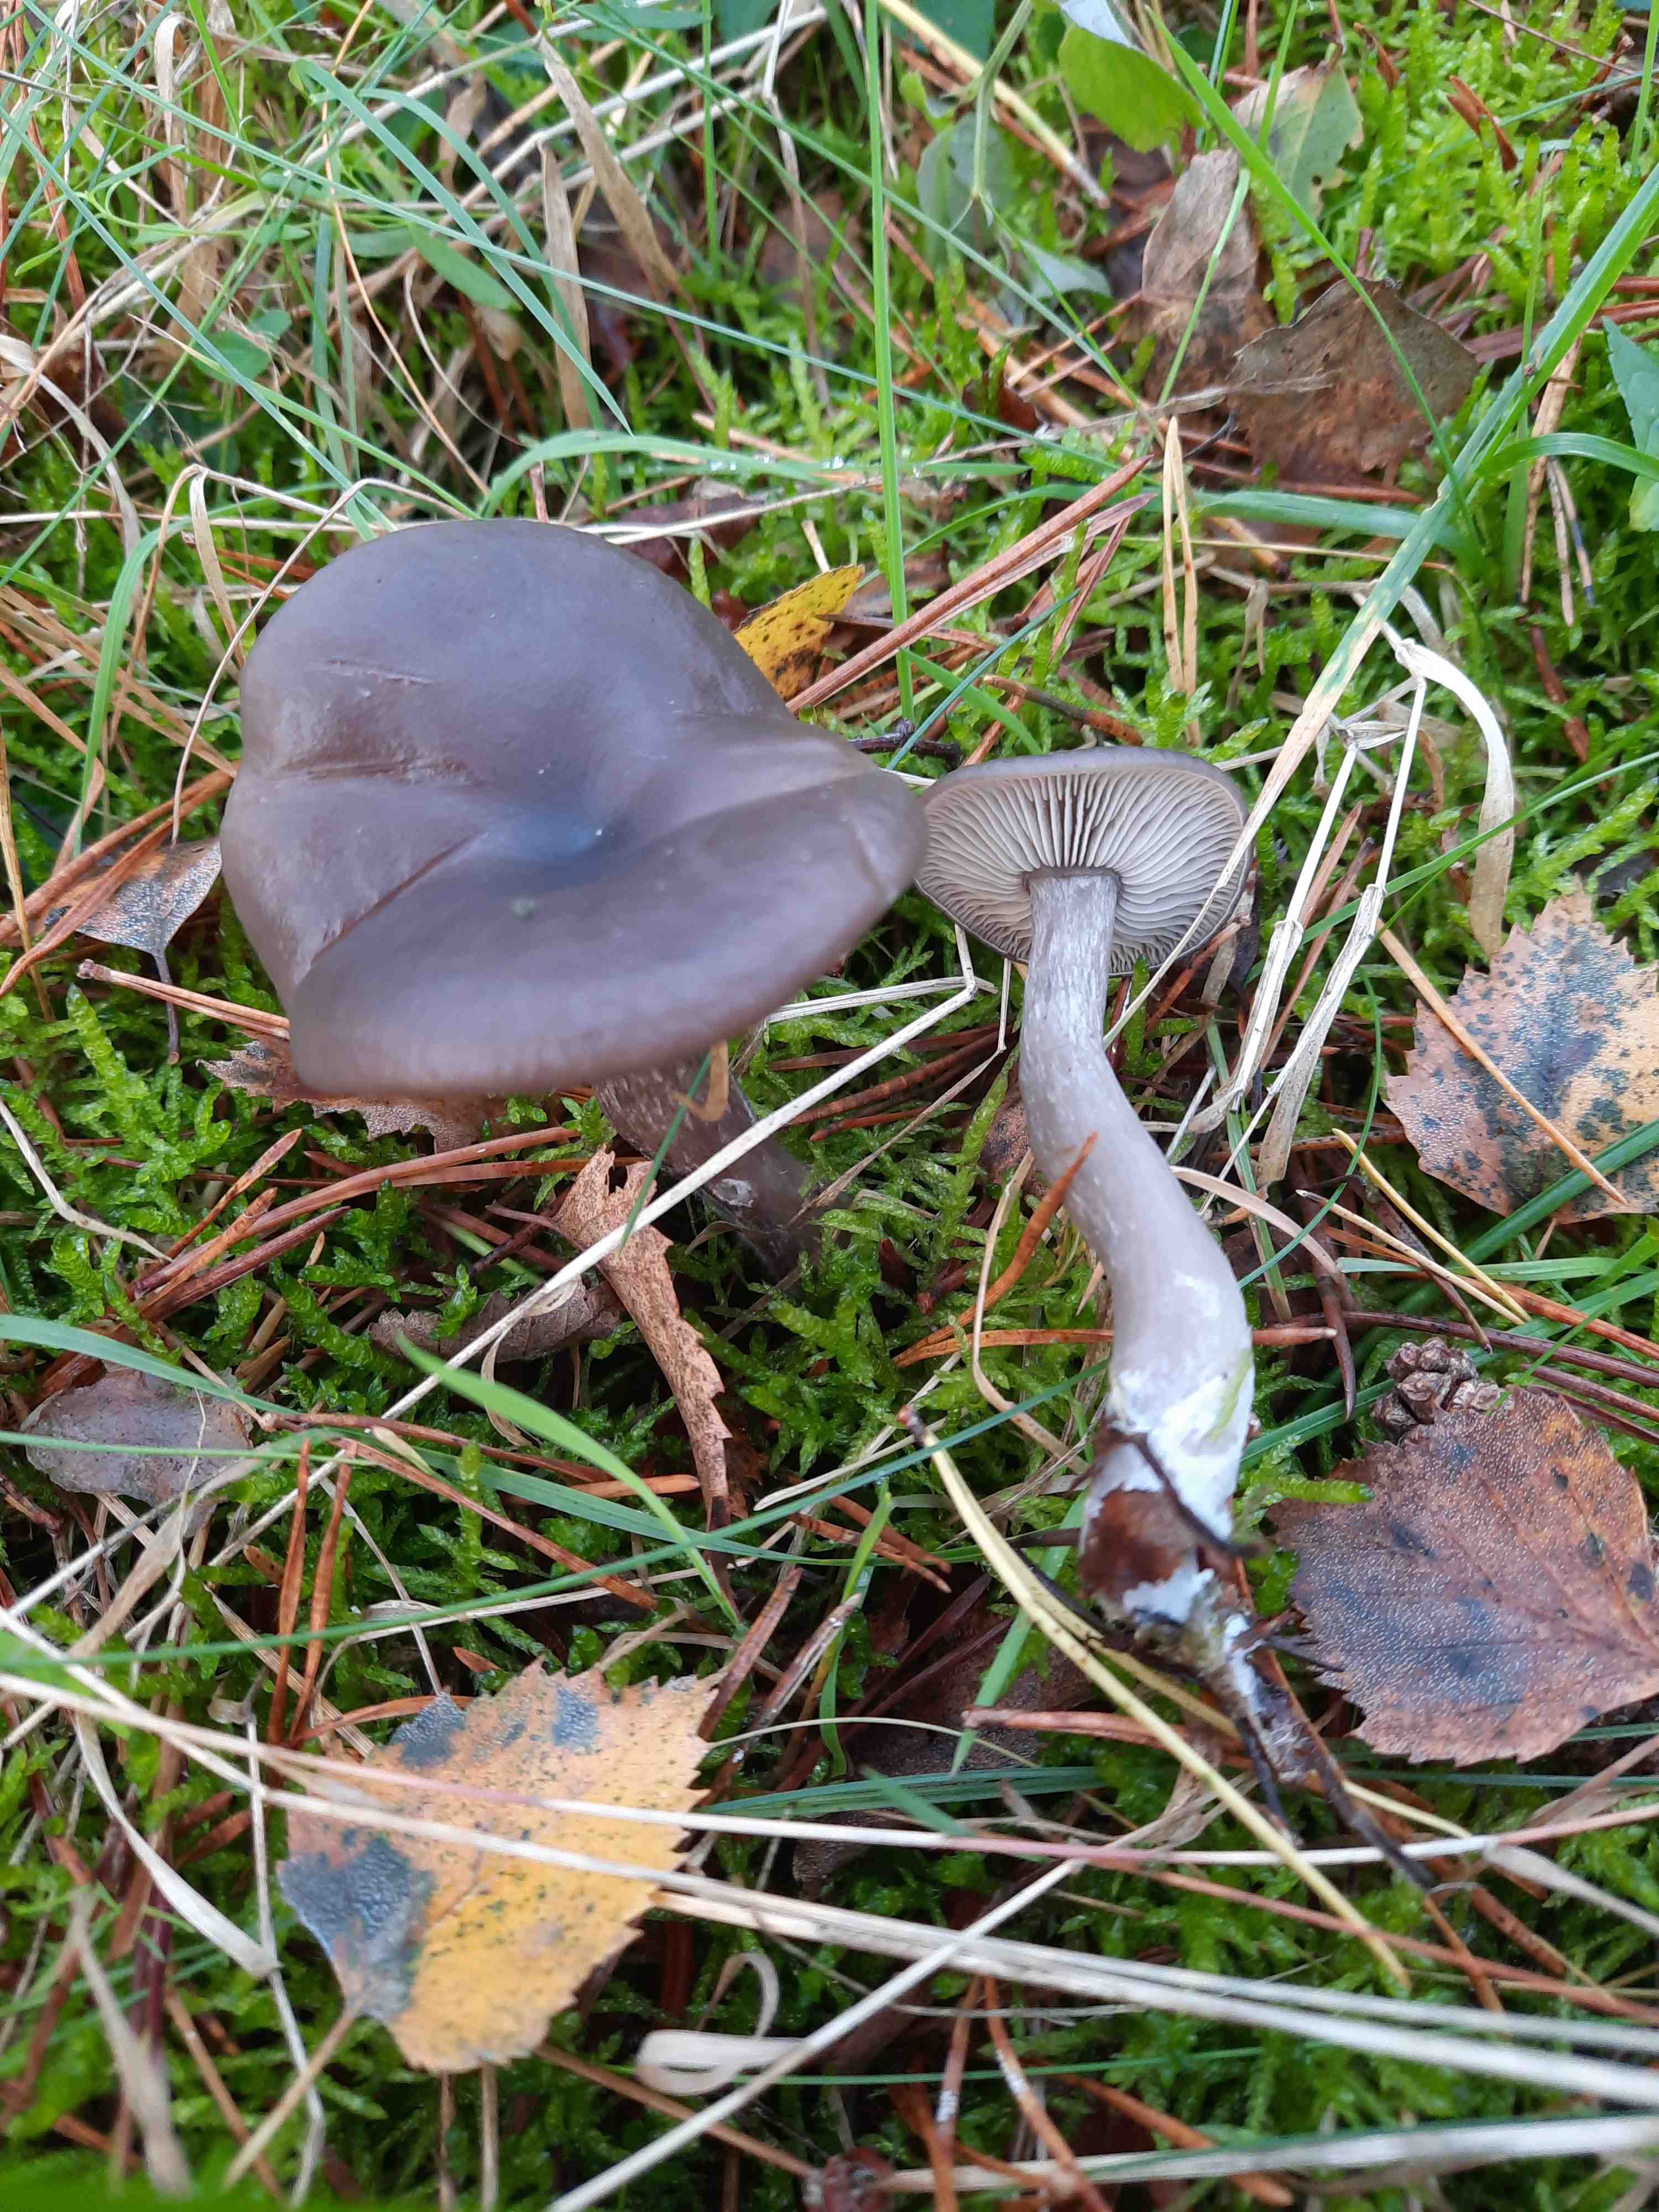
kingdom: Fungi
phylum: Basidiomycota
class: Agaricomycetes
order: Agaricales
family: Pseudoclitocybaceae
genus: Pseudoclitocybe
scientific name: Pseudoclitocybe cyathiformis
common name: almindelig bægertragthat
